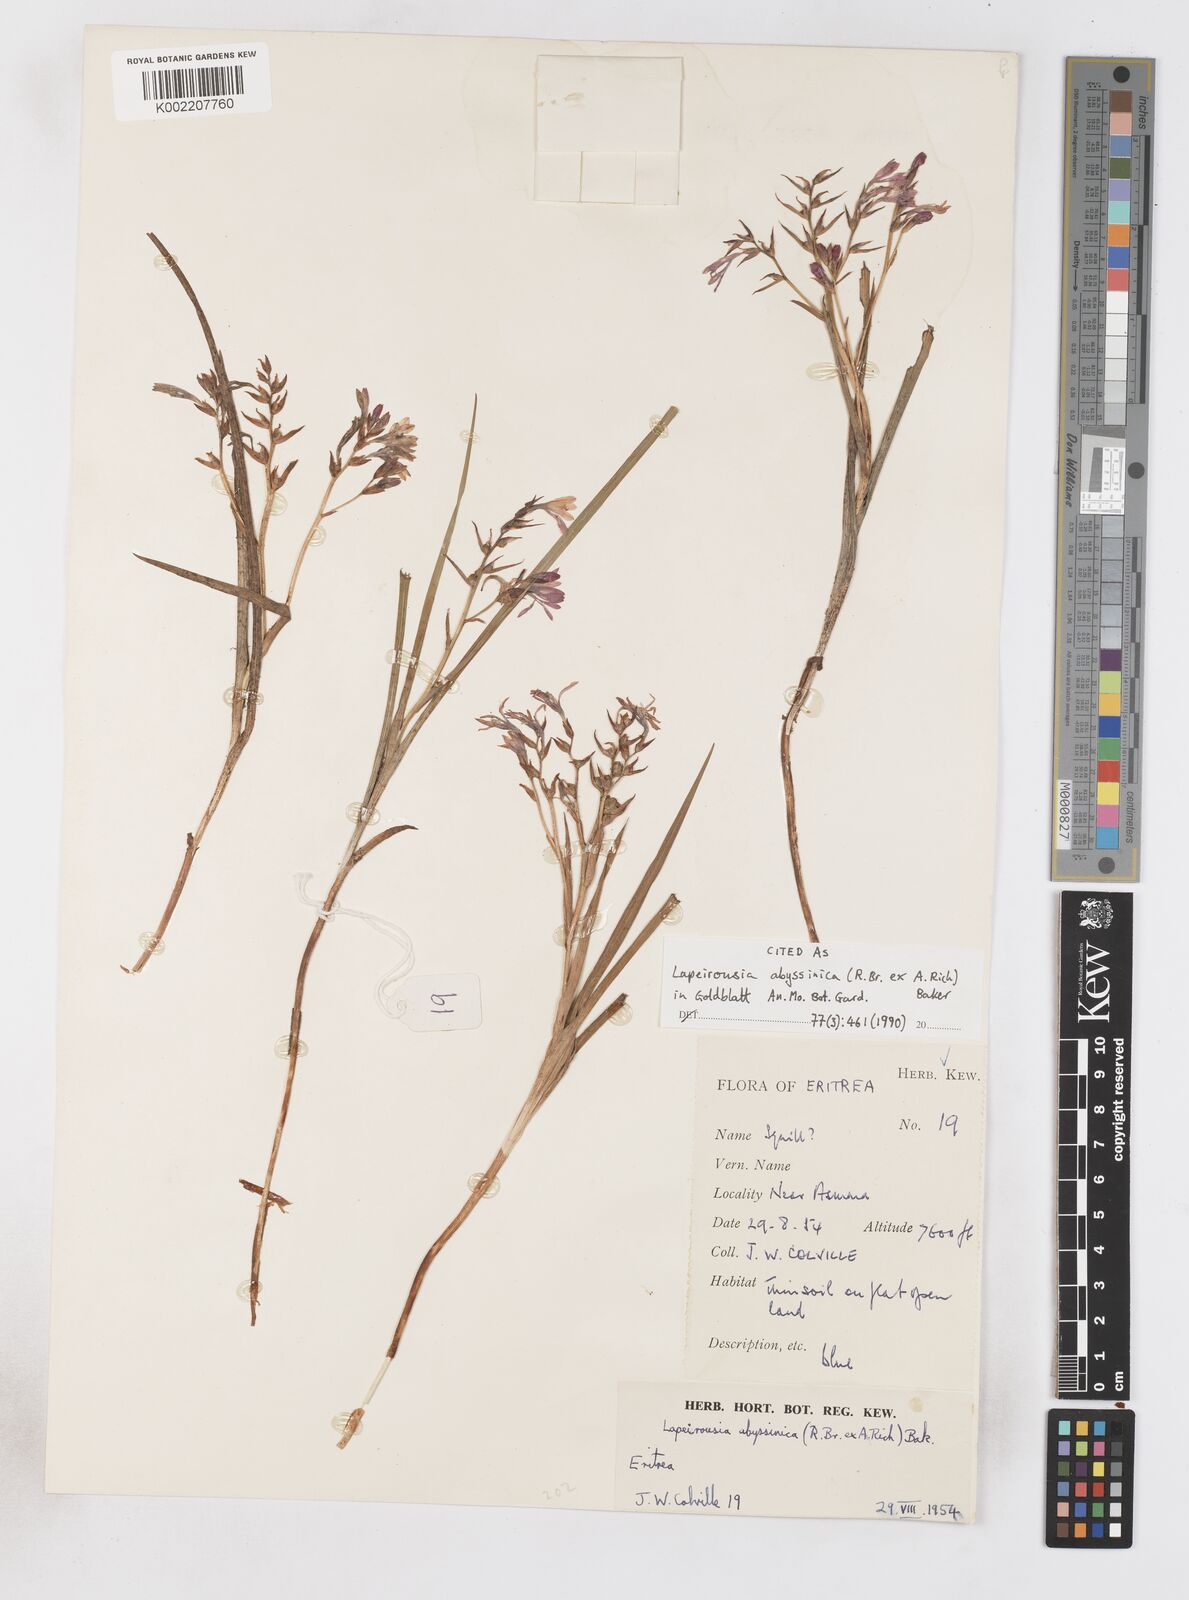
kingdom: Plantae
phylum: Tracheophyta
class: Liliopsida
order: Asparagales
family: Iridaceae
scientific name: Iridaceae
